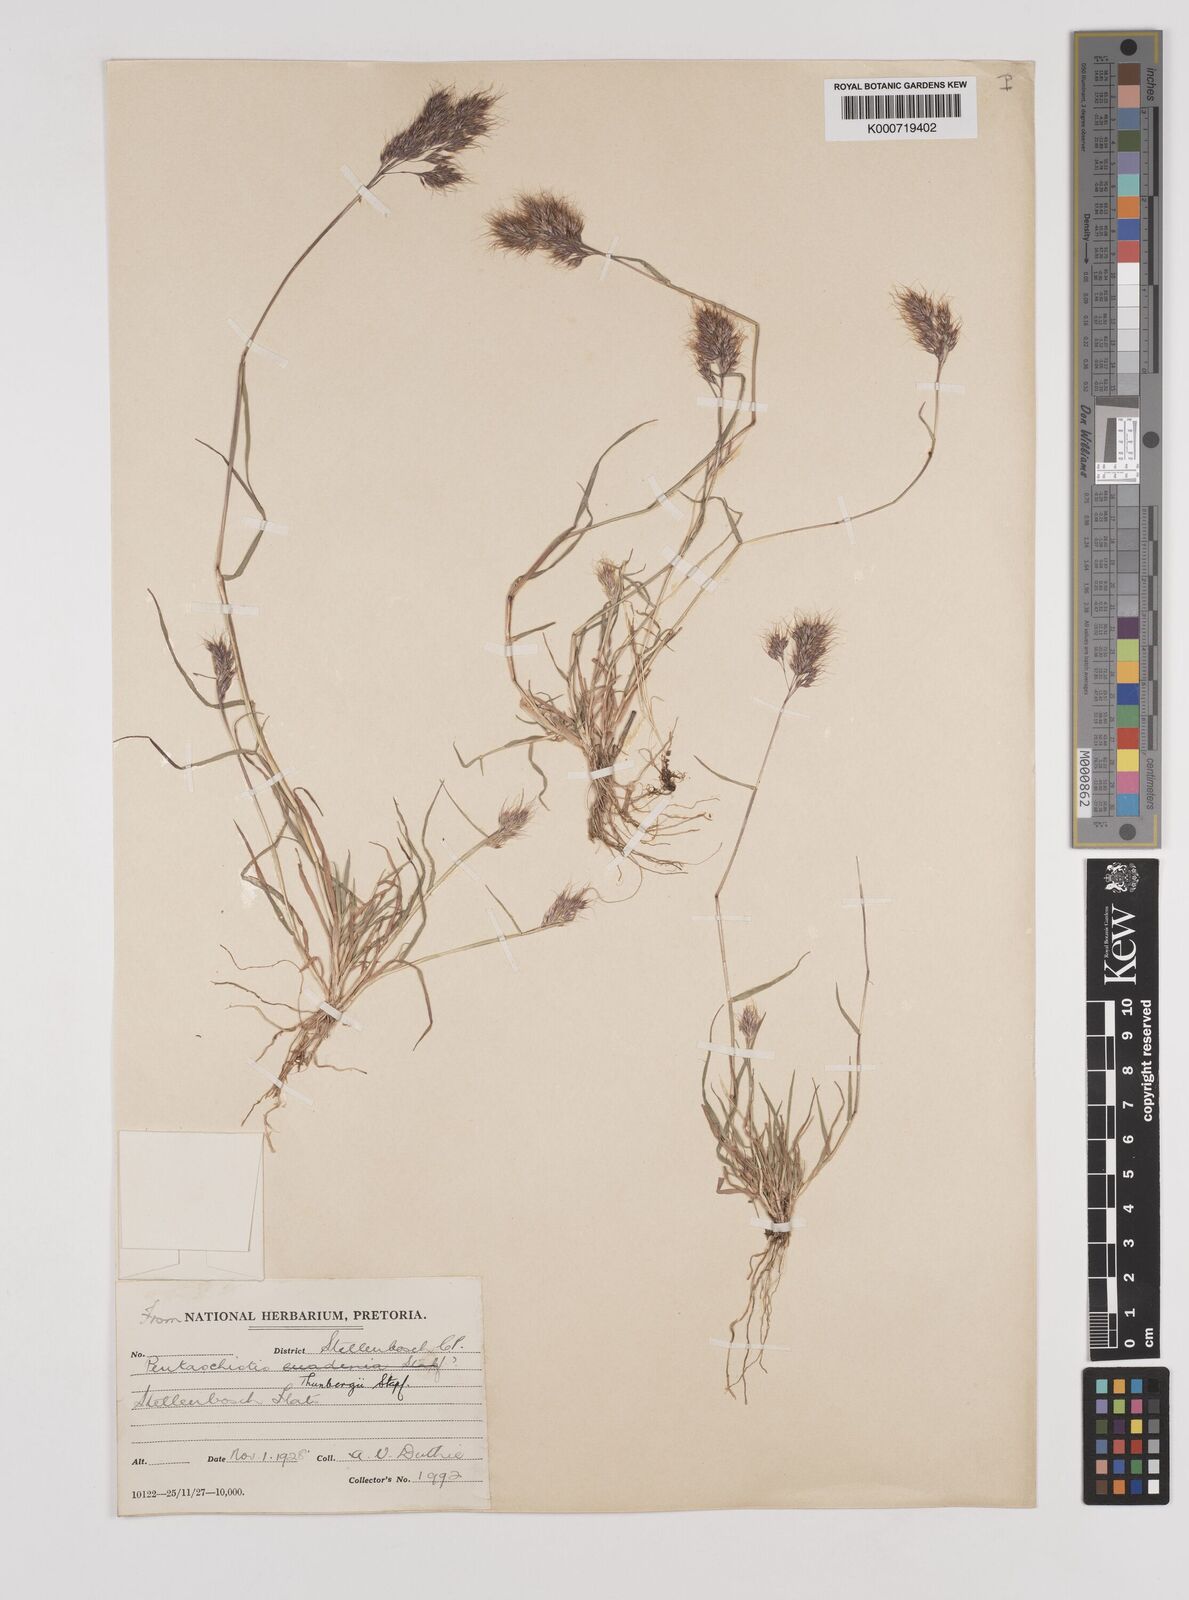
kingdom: Plantae
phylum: Tracheophyta
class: Liliopsida
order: Poales
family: Poaceae
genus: Pentameris
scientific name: Pentameris triseta
